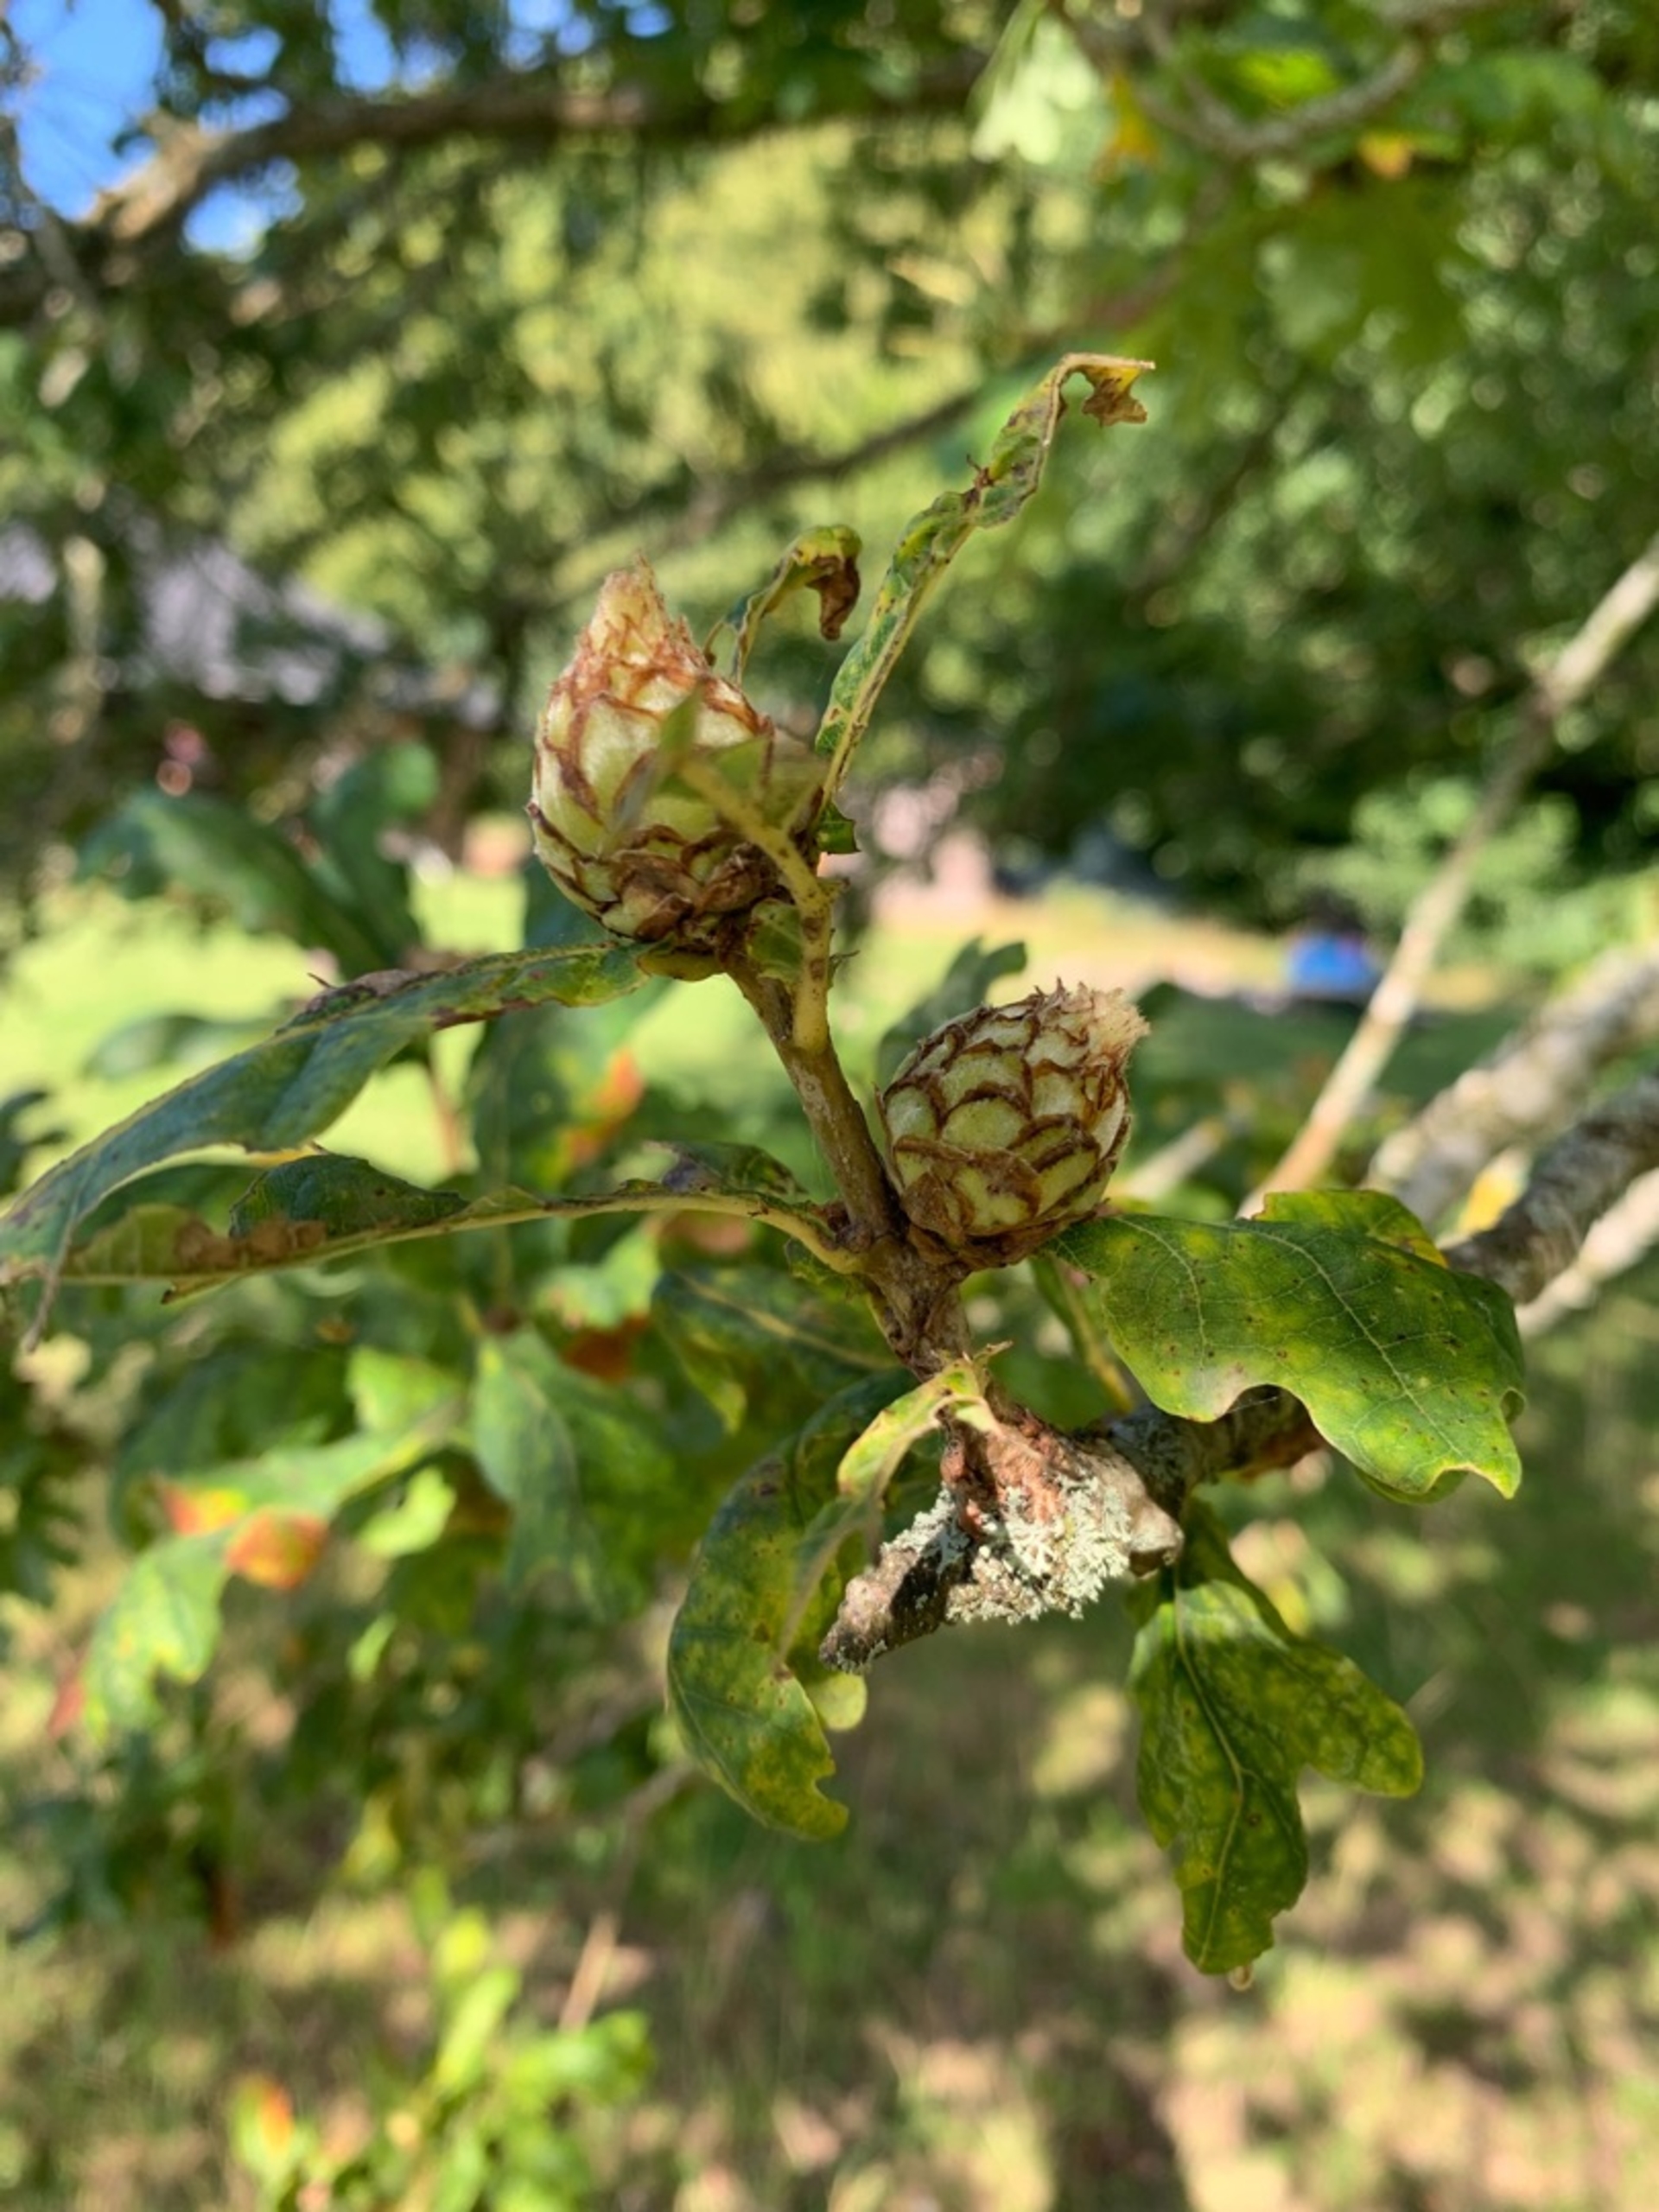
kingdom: Animalia
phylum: Arthropoda
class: Insecta
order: Hymenoptera
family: Cynipidae
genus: Andricus
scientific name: Andricus foecundatrix
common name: Artiskokgalhveps
